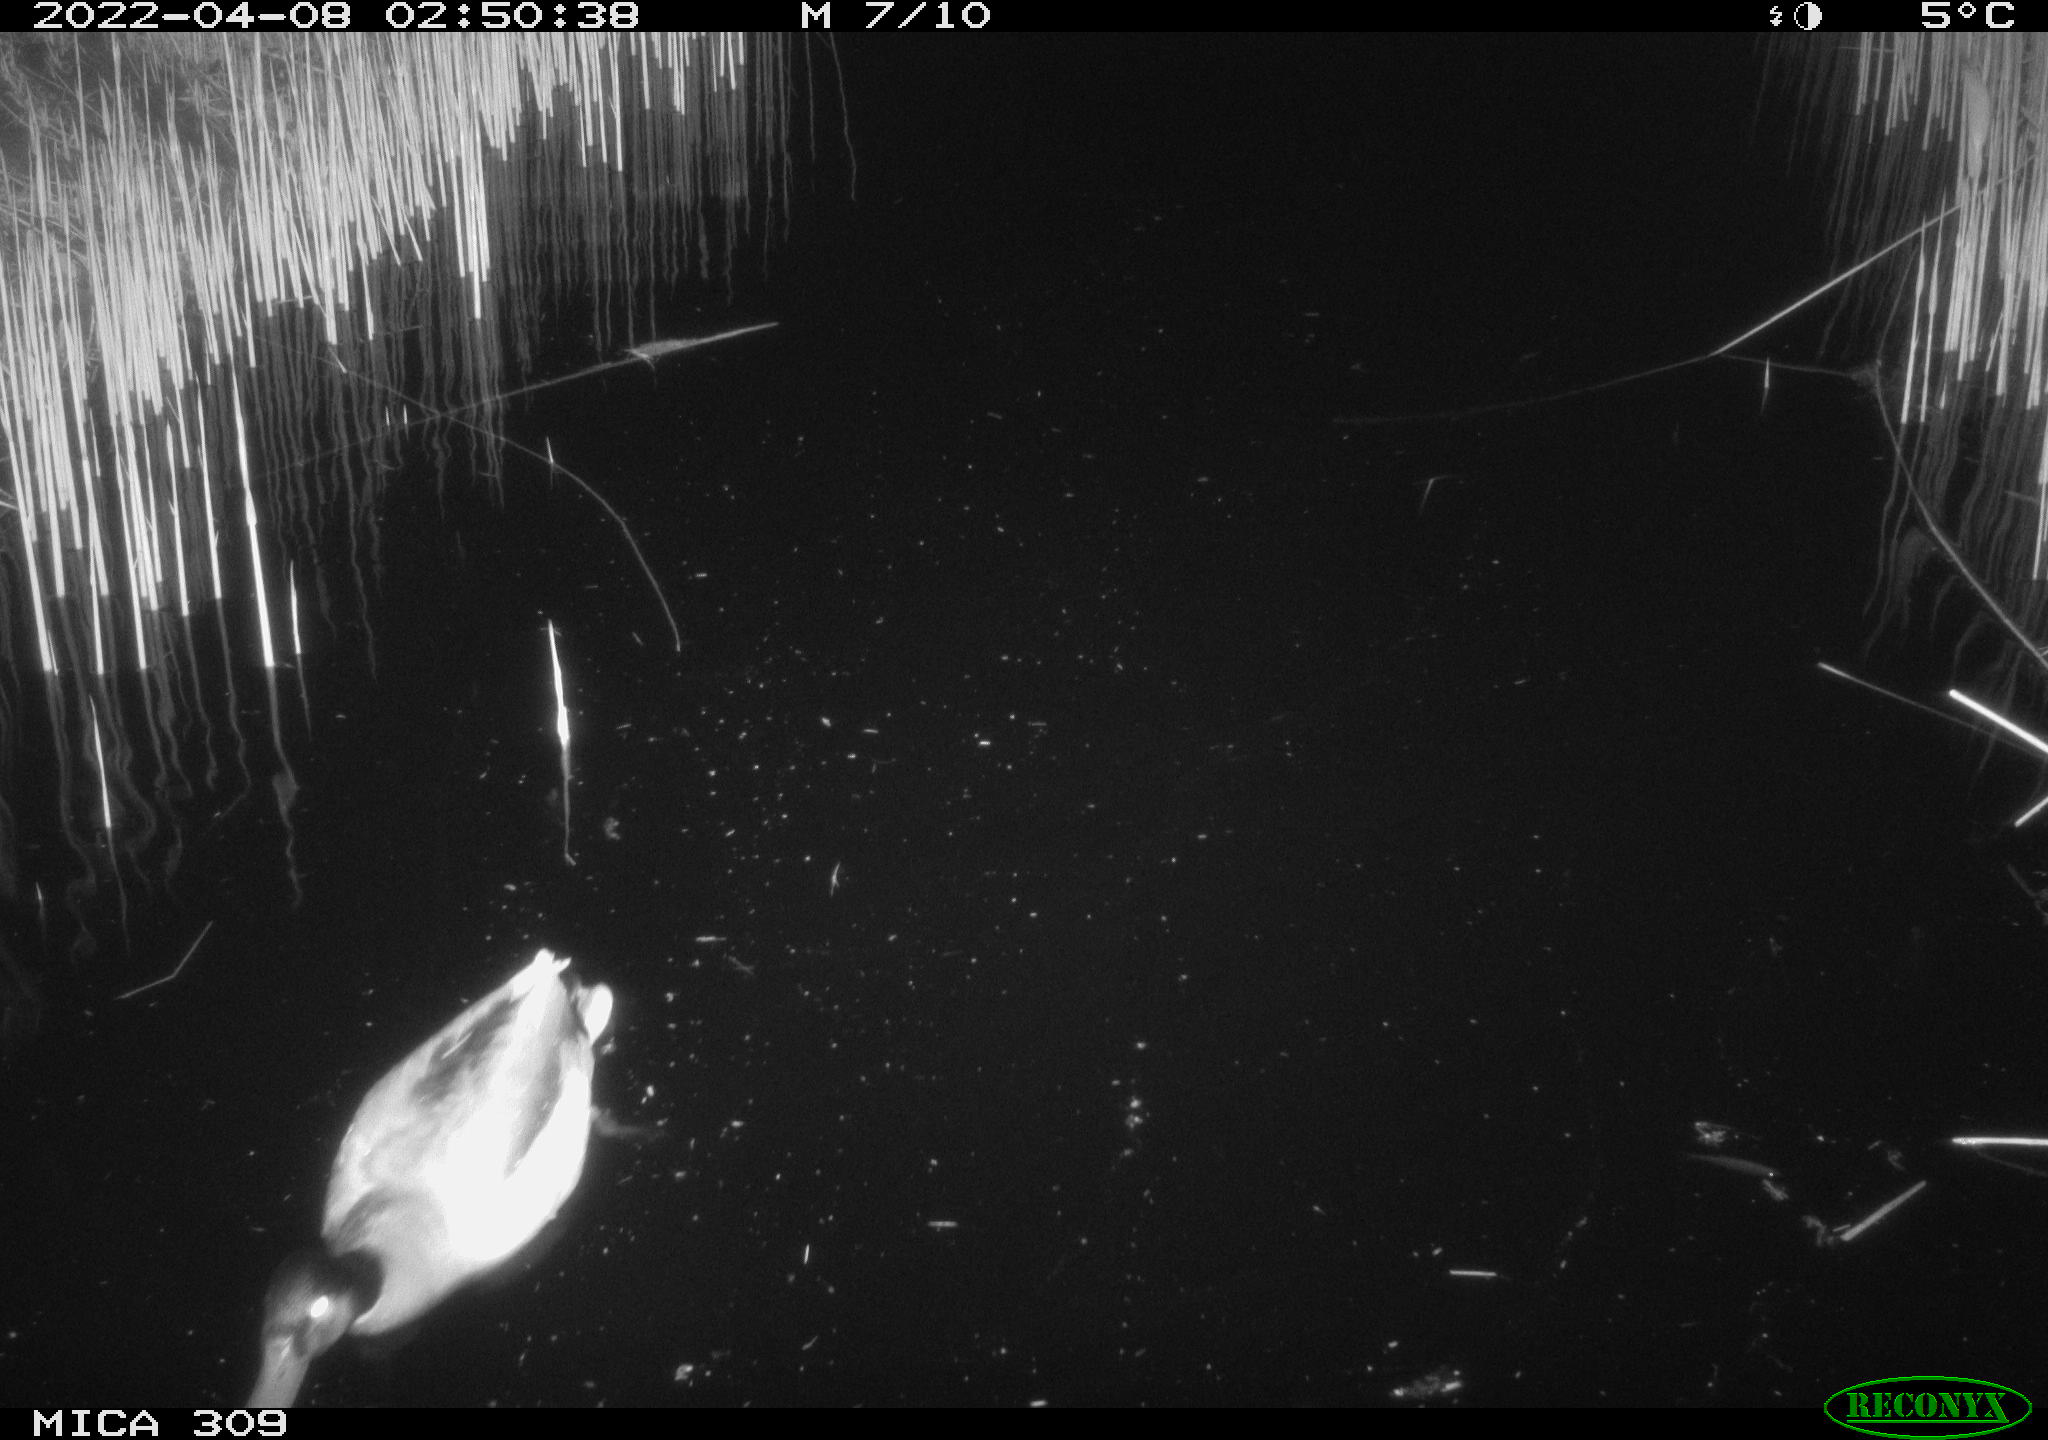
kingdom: Animalia
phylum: Chordata
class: Aves
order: Anseriformes
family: Anatidae
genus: Anas
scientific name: Anas platyrhynchos
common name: Mallard
